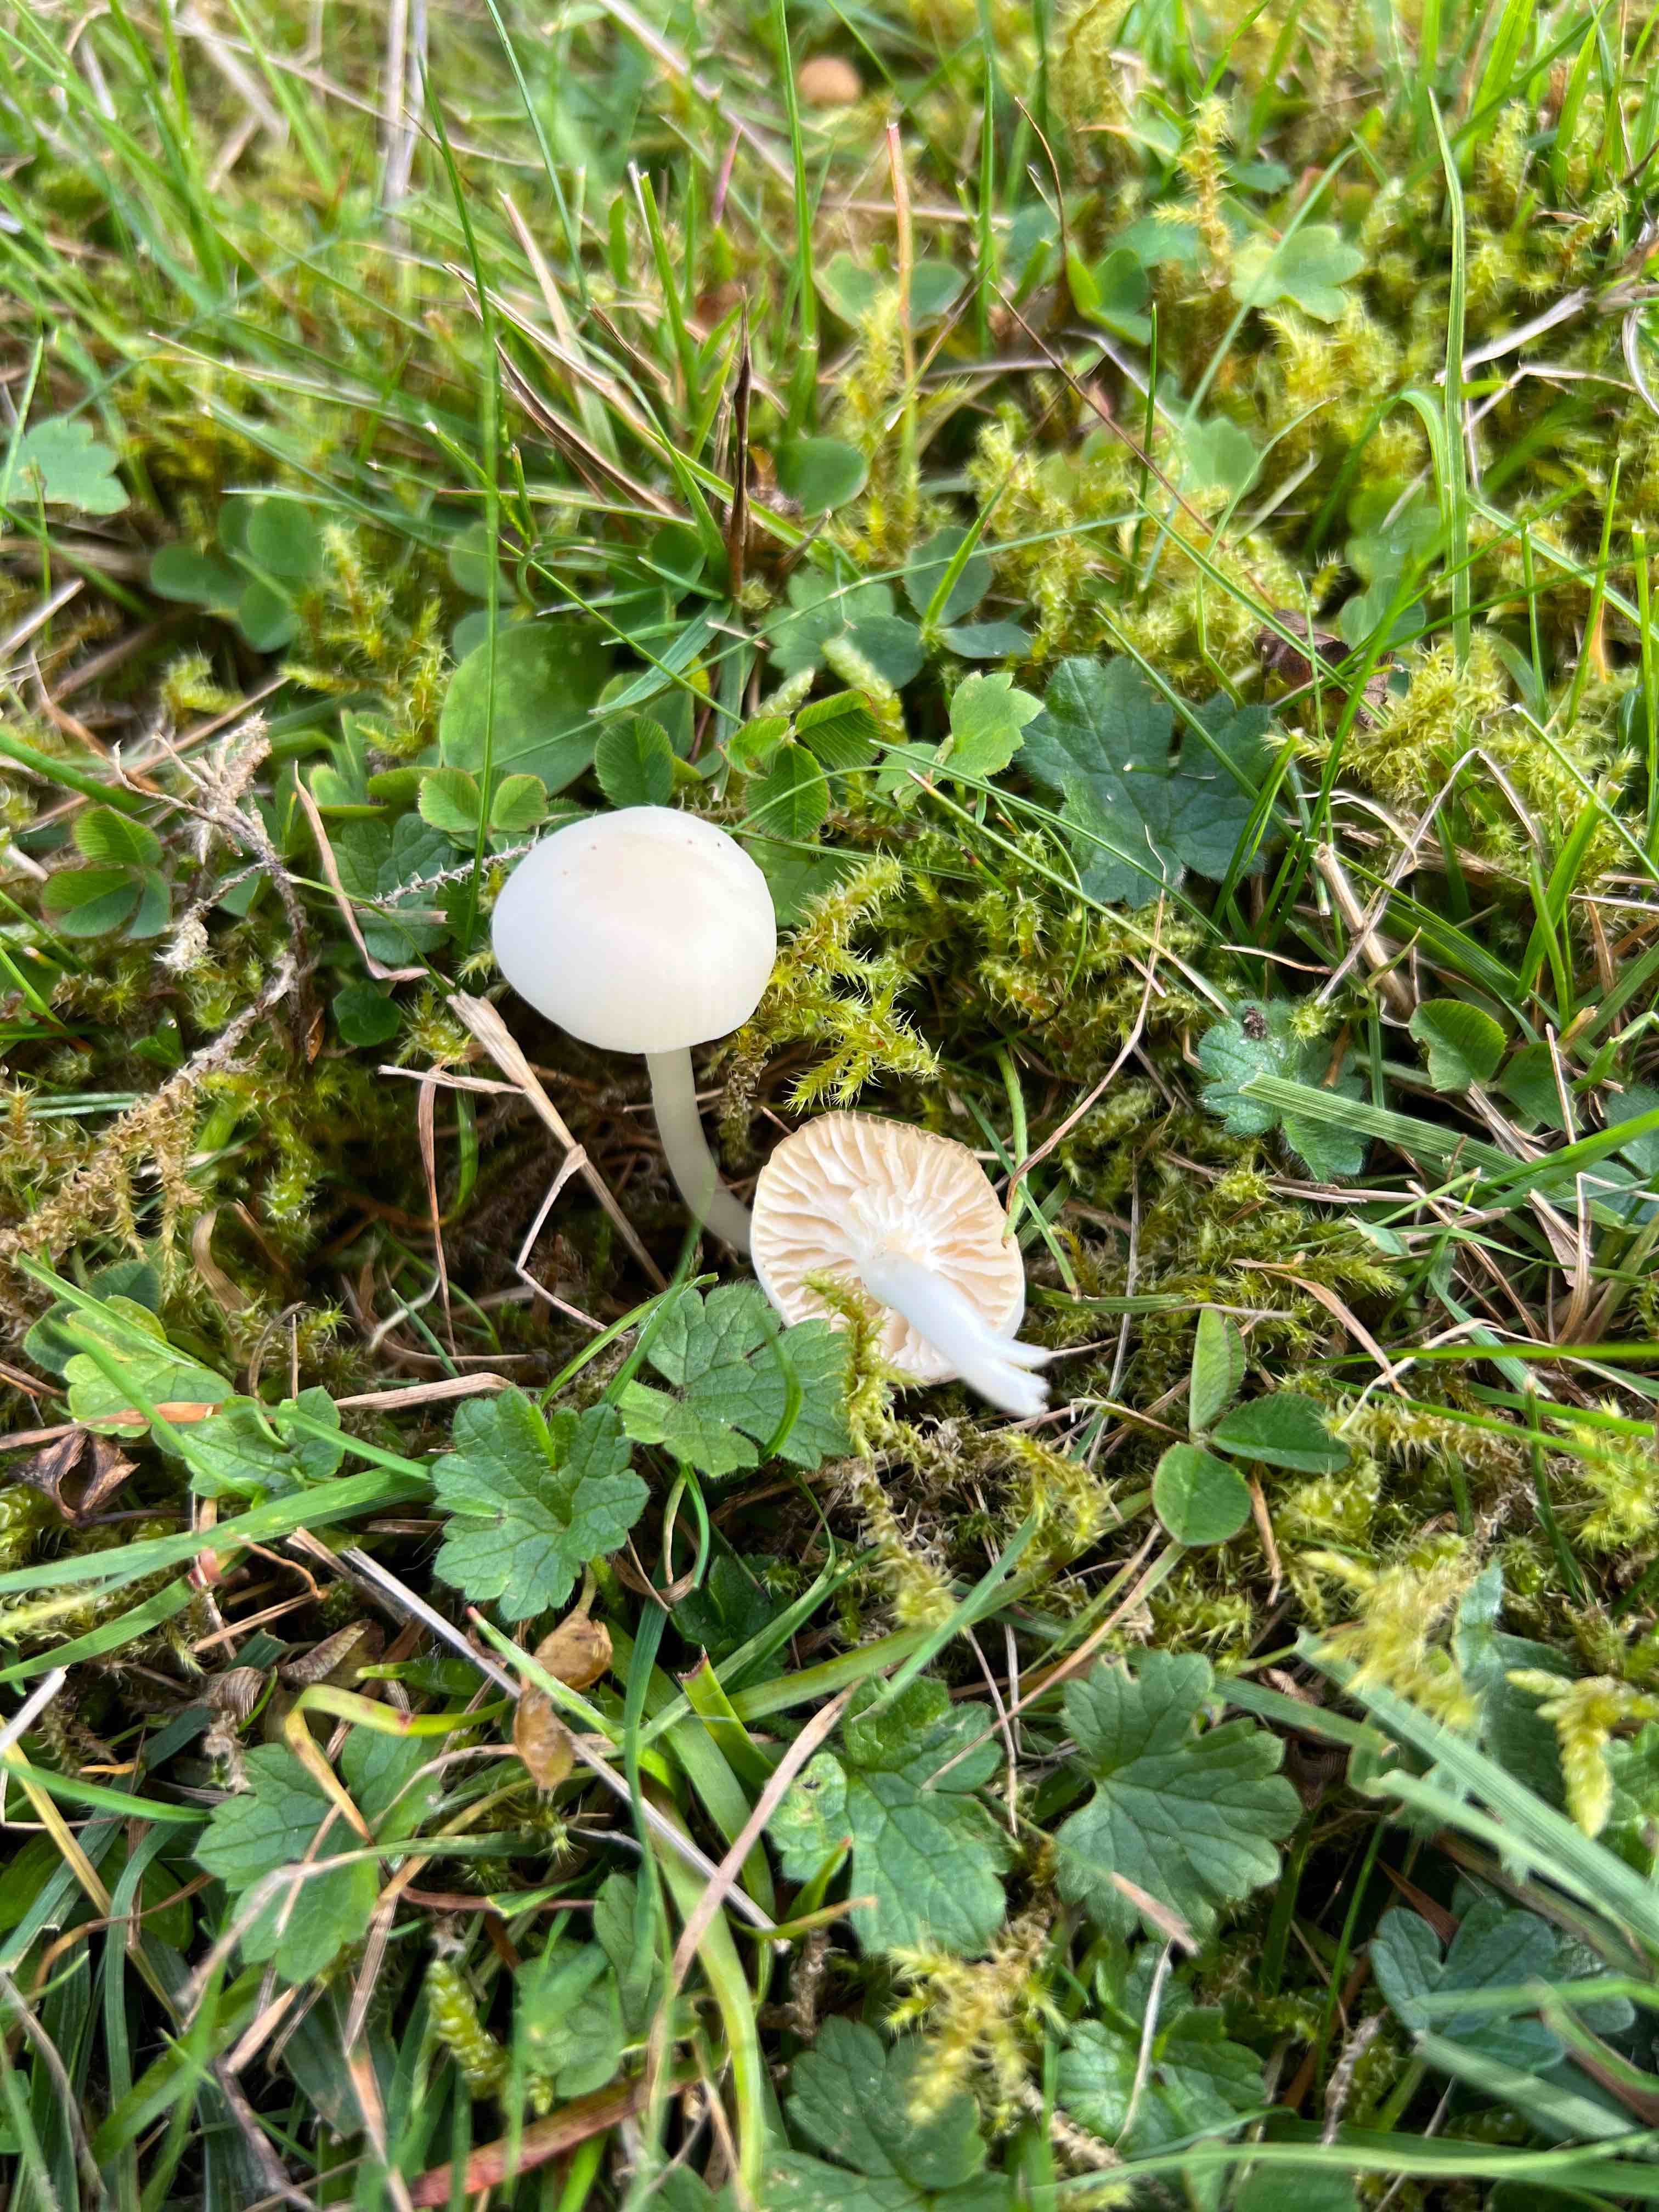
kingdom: Fungi
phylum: Basidiomycota
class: Agaricomycetes
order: Agaricales
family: Hygrophoraceae
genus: Cuphophyllus
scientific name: Cuphophyllus virgineus
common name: snehvid vokshat
